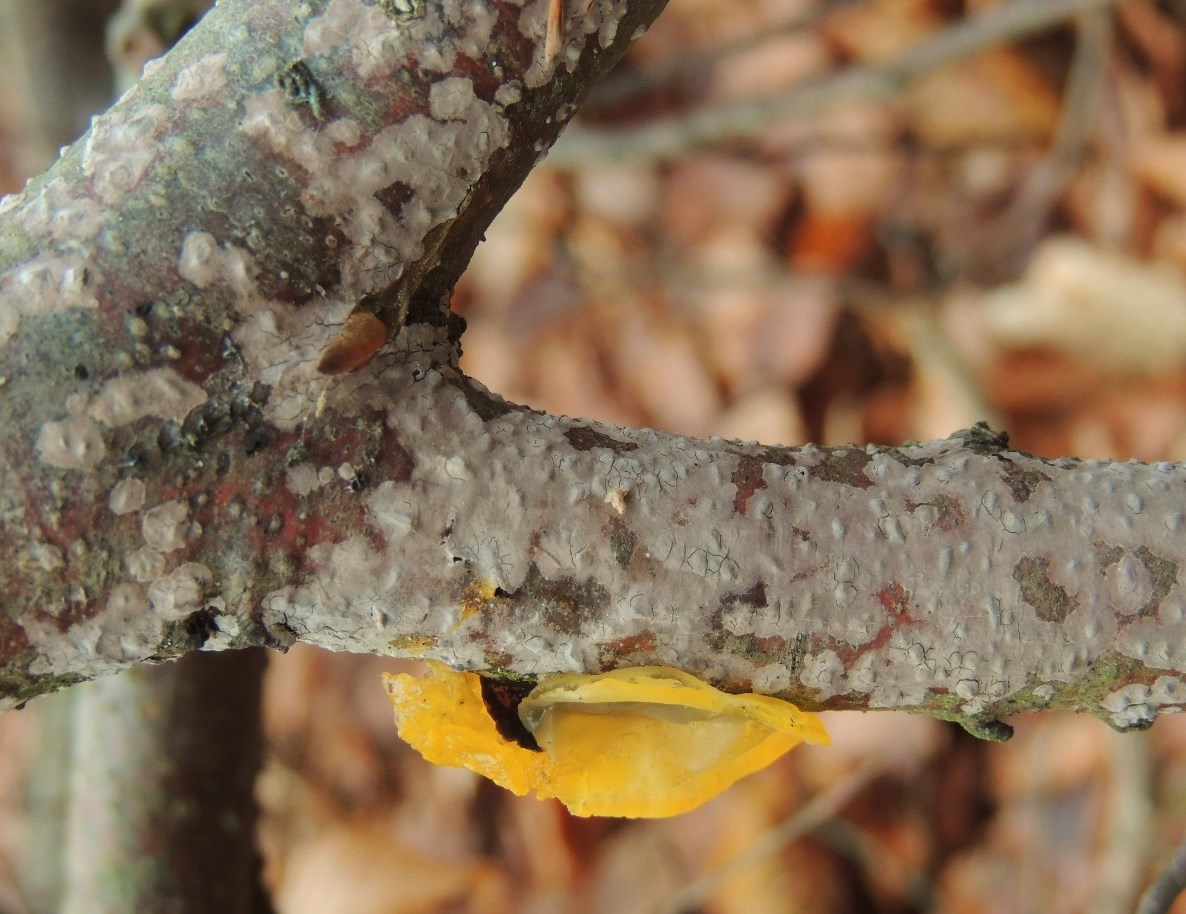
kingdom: Fungi
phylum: Basidiomycota
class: Agaricomycetes
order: Russulales
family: Peniophoraceae
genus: Peniophora
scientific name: Peniophora
